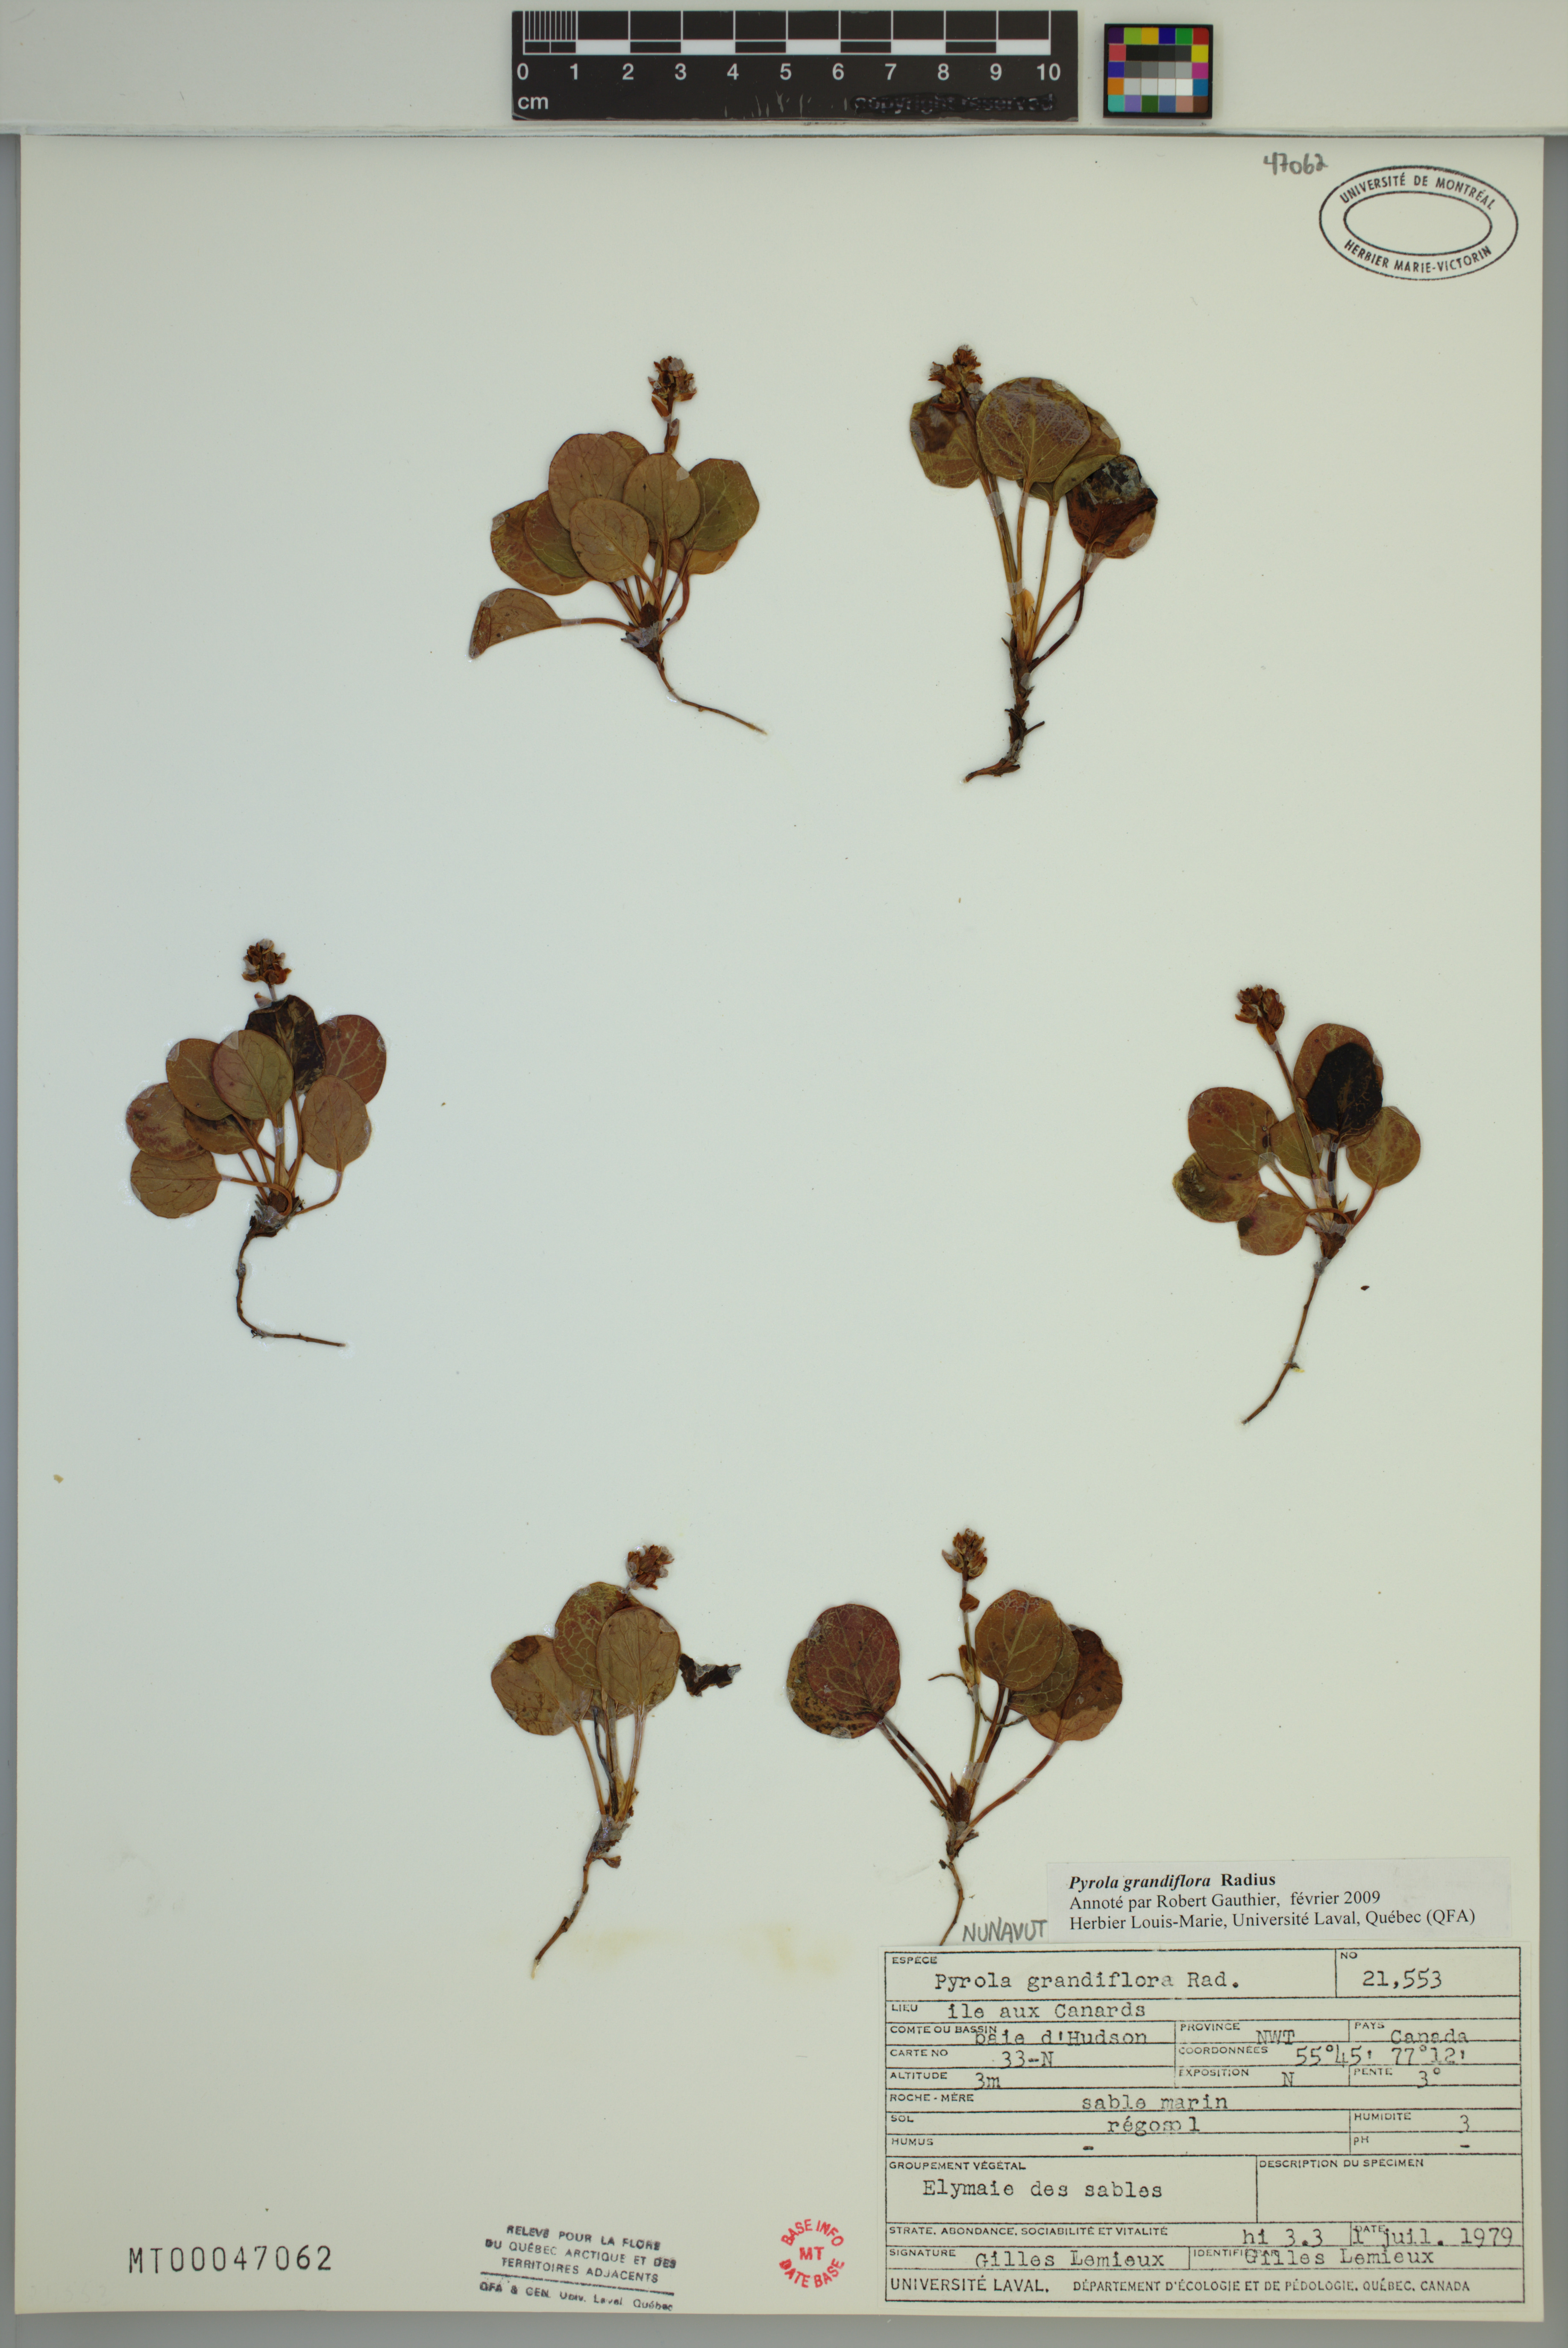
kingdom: Plantae
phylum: Tracheophyta
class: Magnoliopsida
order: Ericales
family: Ericaceae
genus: Pyrola
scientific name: Pyrola grandiflora
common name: Arctic pyrola
